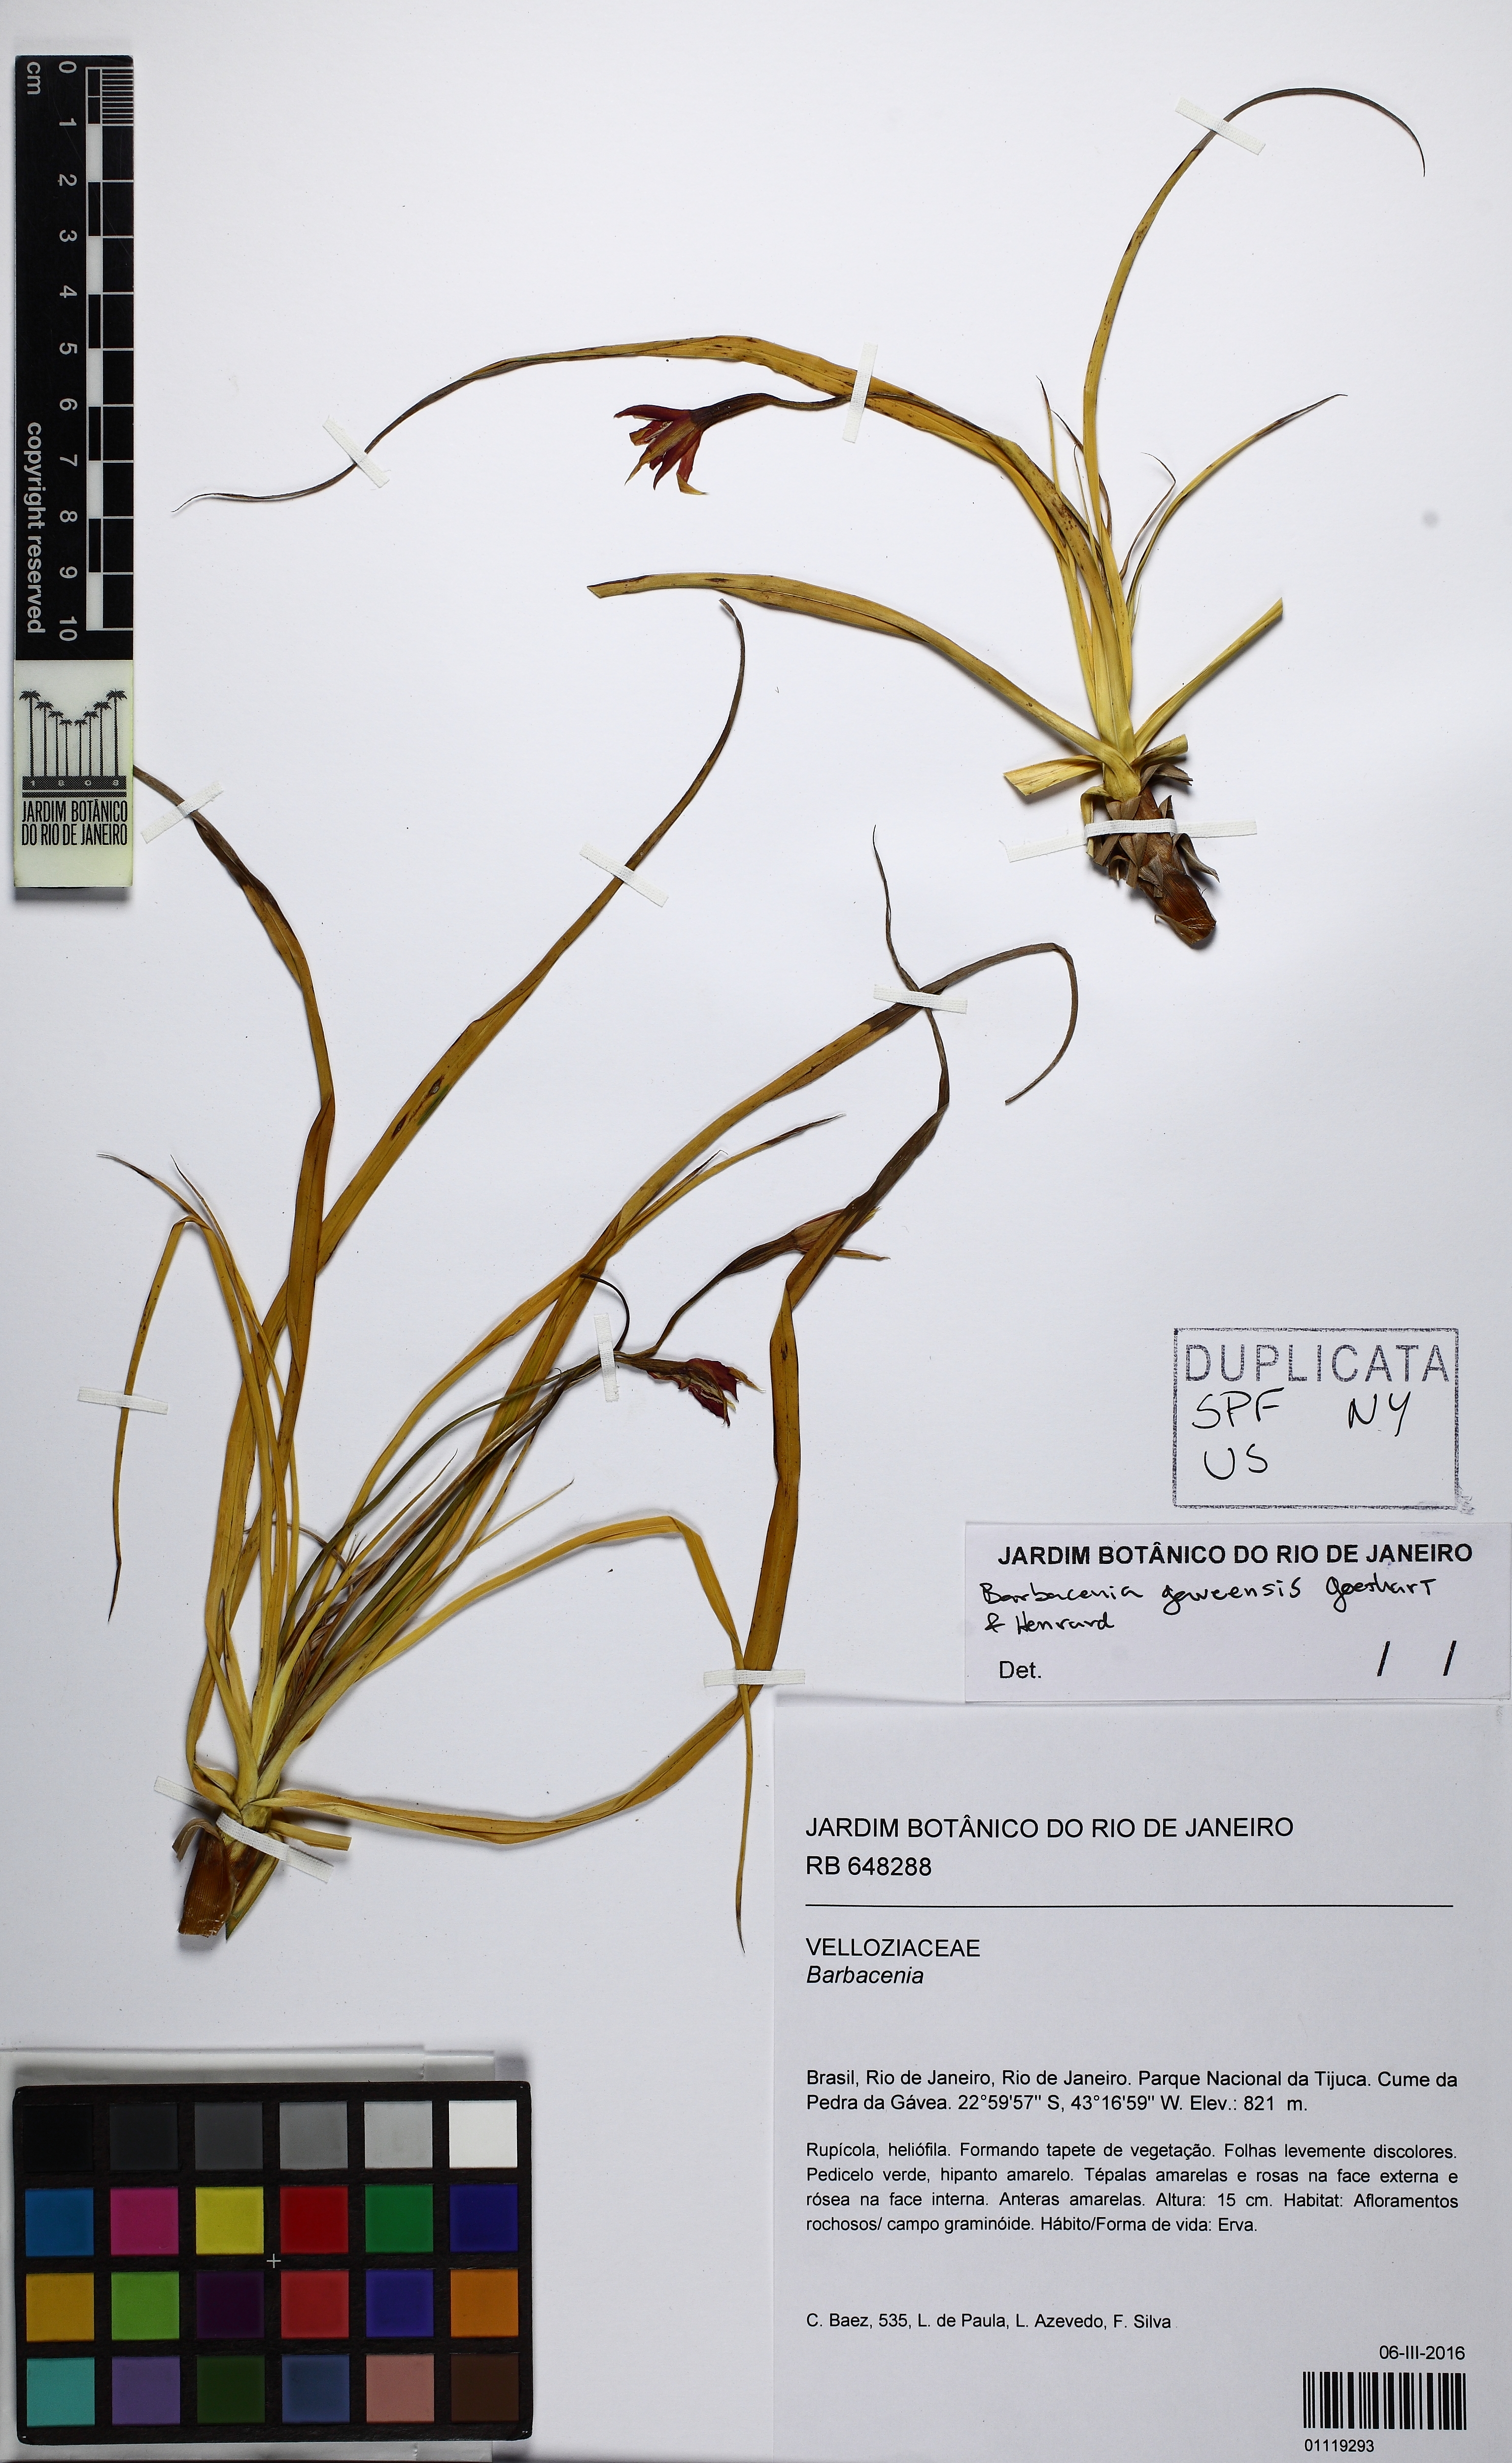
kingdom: Plantae
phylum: Tracheophyta
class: Liliopsida
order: Pandanales
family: Velloziaceae
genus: Barbacenia
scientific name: Barbacenia gaveensis
